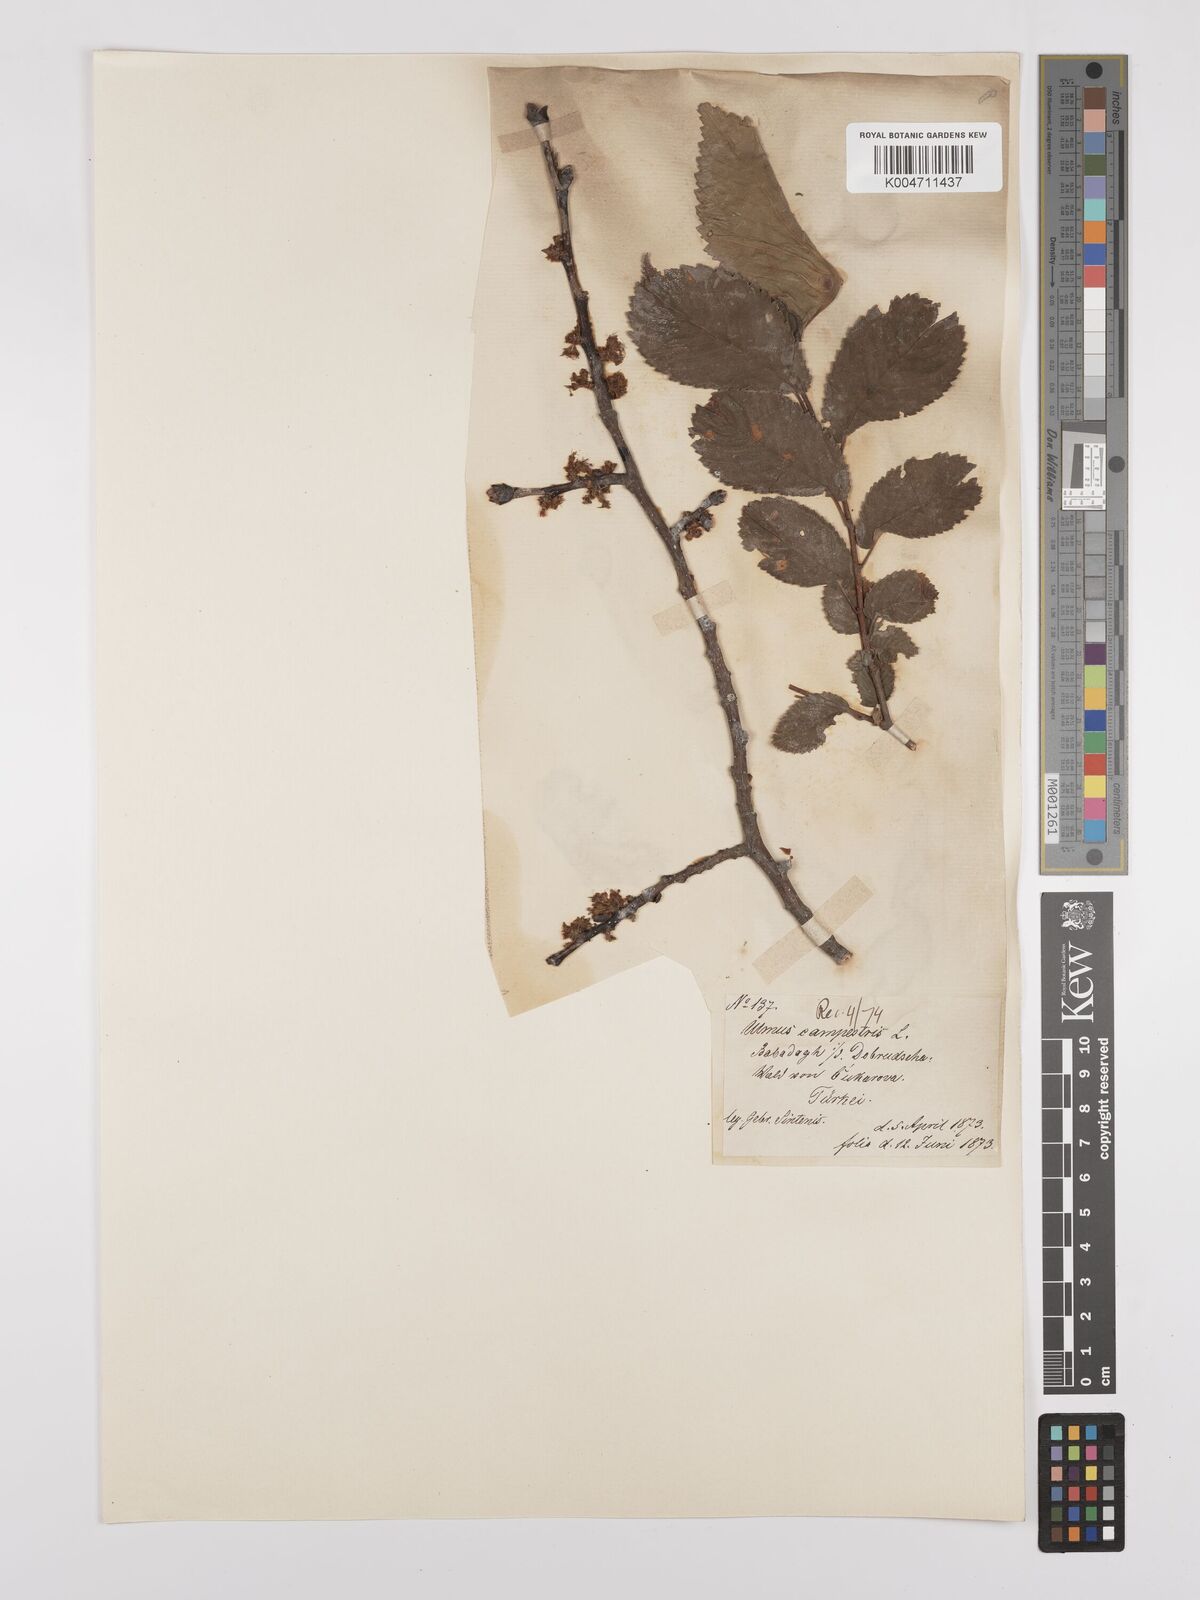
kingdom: Plantae
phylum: Tracheophyta
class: Magnoliopsida
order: Rosales
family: Ulmaceae
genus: Ulmus
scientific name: Ulmus minor
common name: Small-leaved elm
